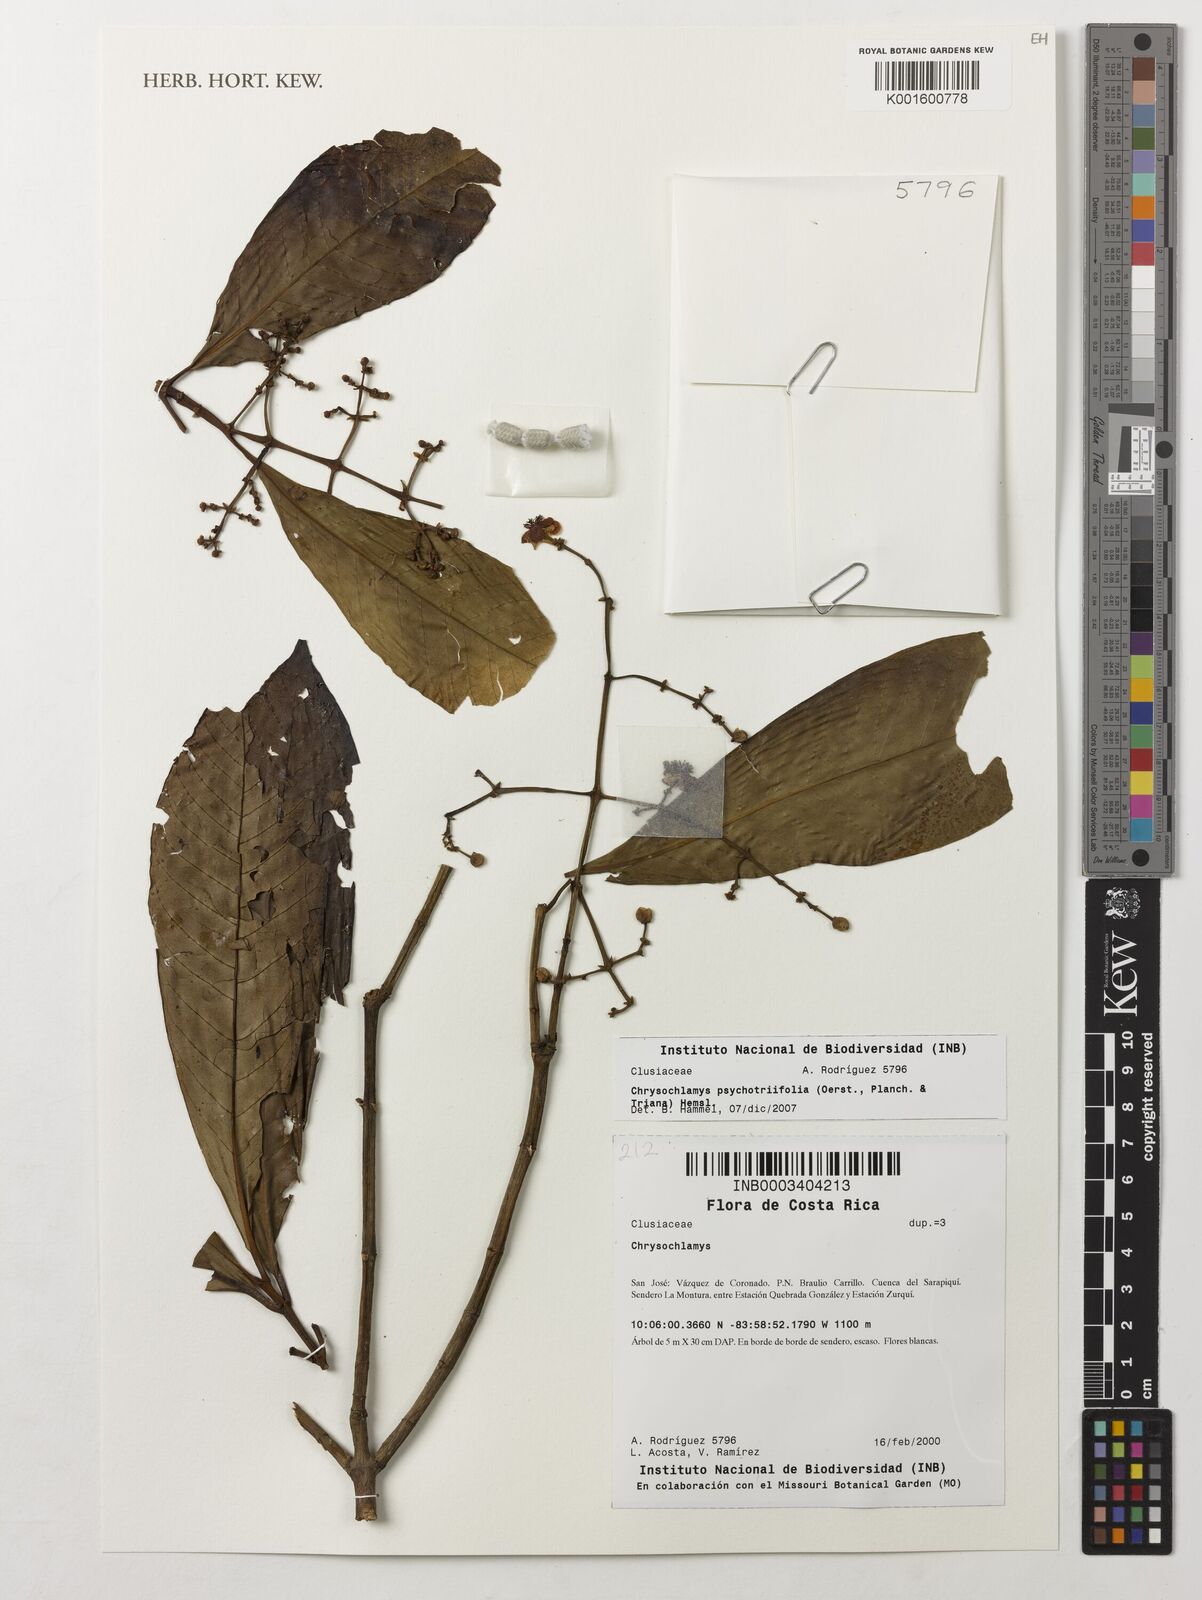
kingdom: Plantae
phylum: Tracheophyta
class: Magnoliopsida
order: Malpighiales
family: Clusiaceae
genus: Chrysochlamys
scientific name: Chrysochlamys psychotriifolia
